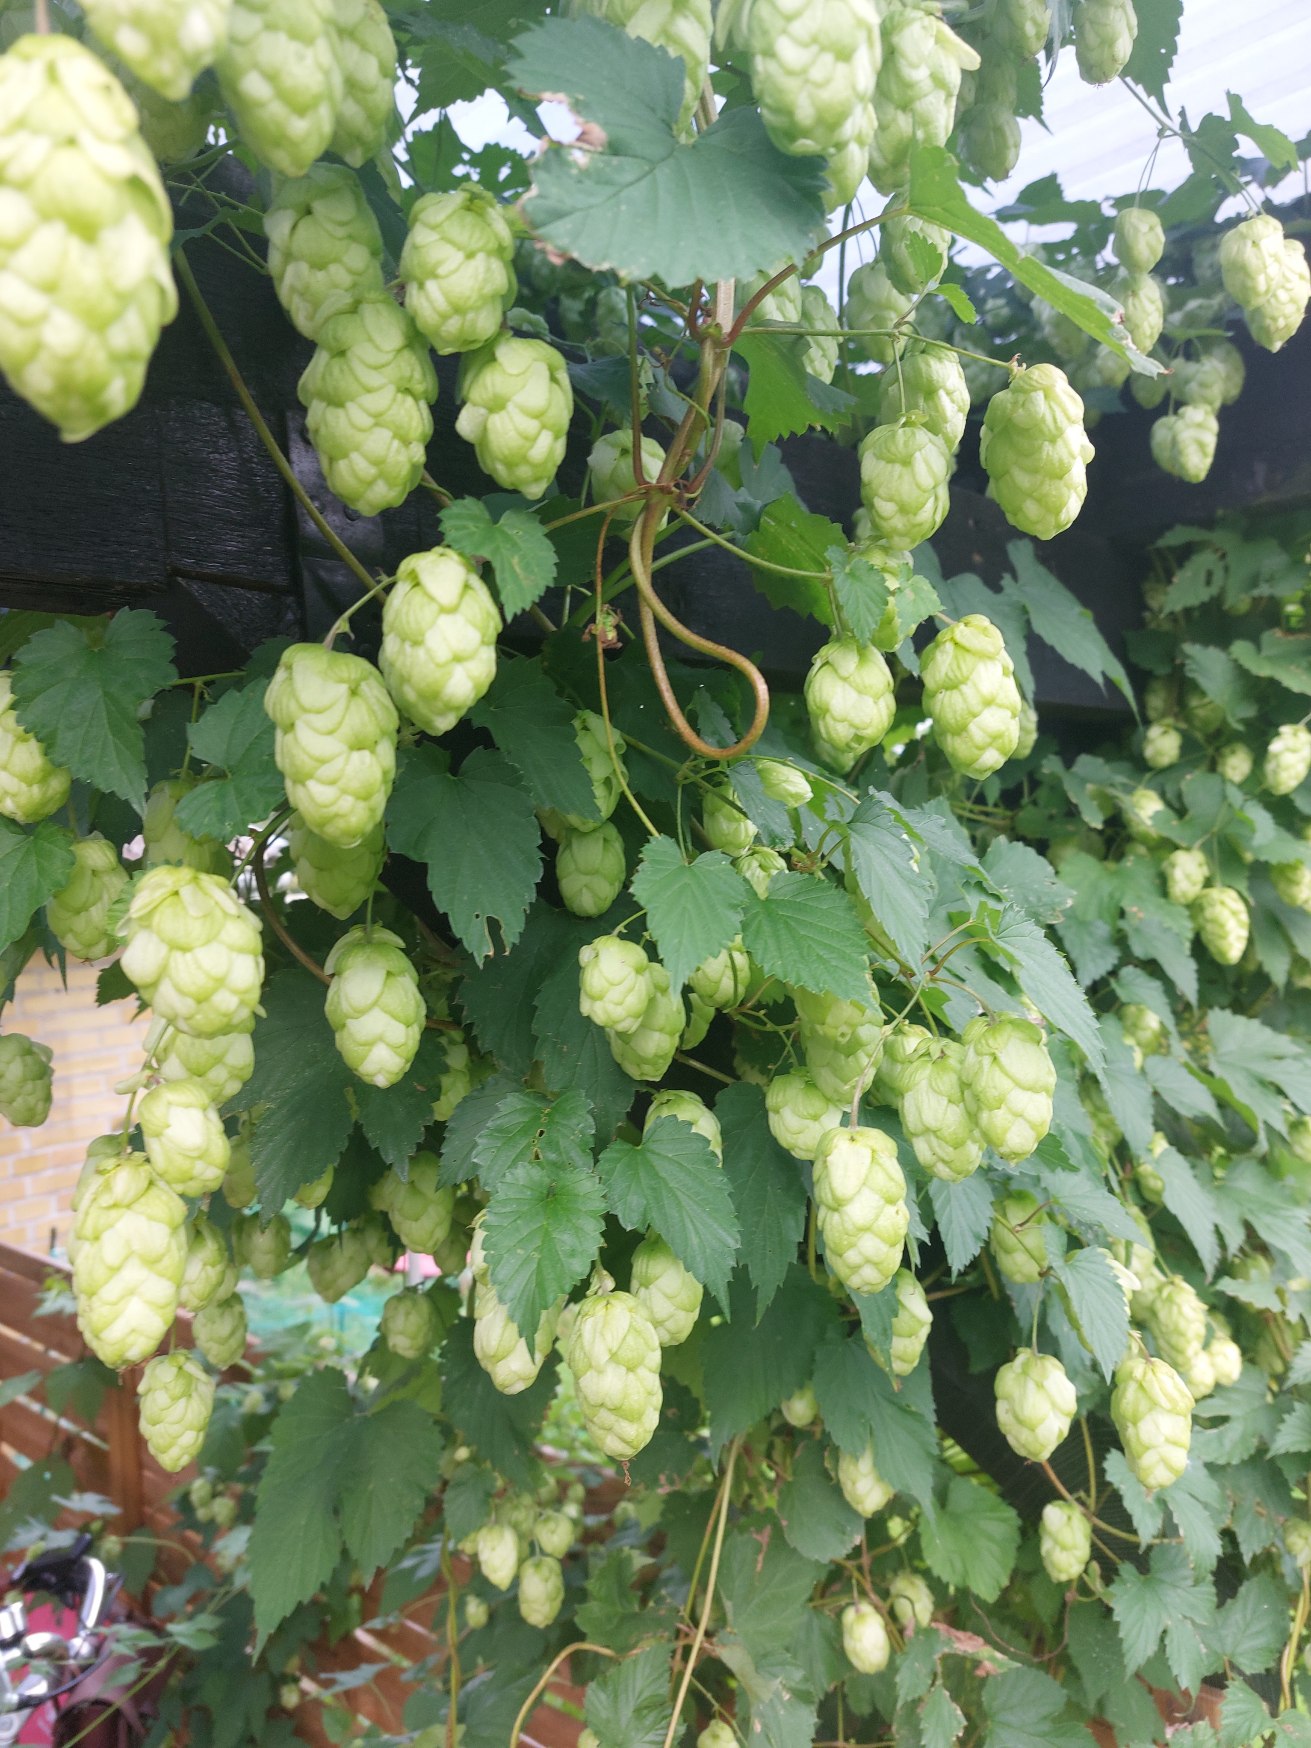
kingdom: Plantae
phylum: Tracheophyta
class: Magnoliopsida
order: Rosales
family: Cannabaceae
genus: Humulus
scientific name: Humulus lupulus
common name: Humle
